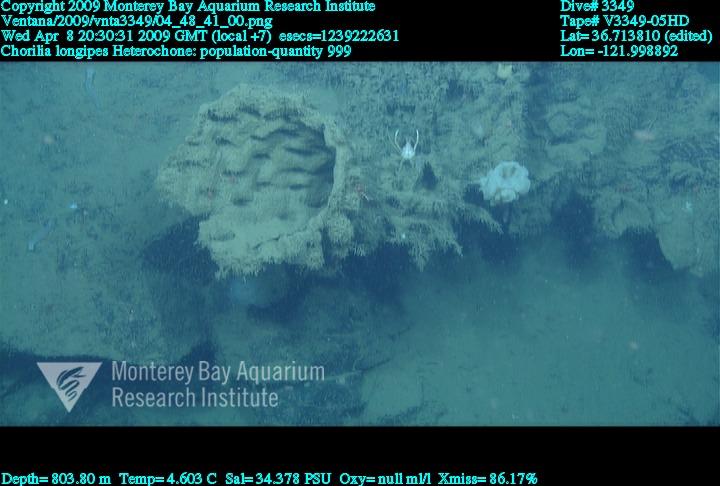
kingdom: Animalia
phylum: Porifera
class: Hexactinellida
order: Sceptrulophora
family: Aphrocallistidae
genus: Heterochone
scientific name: Heterochone
